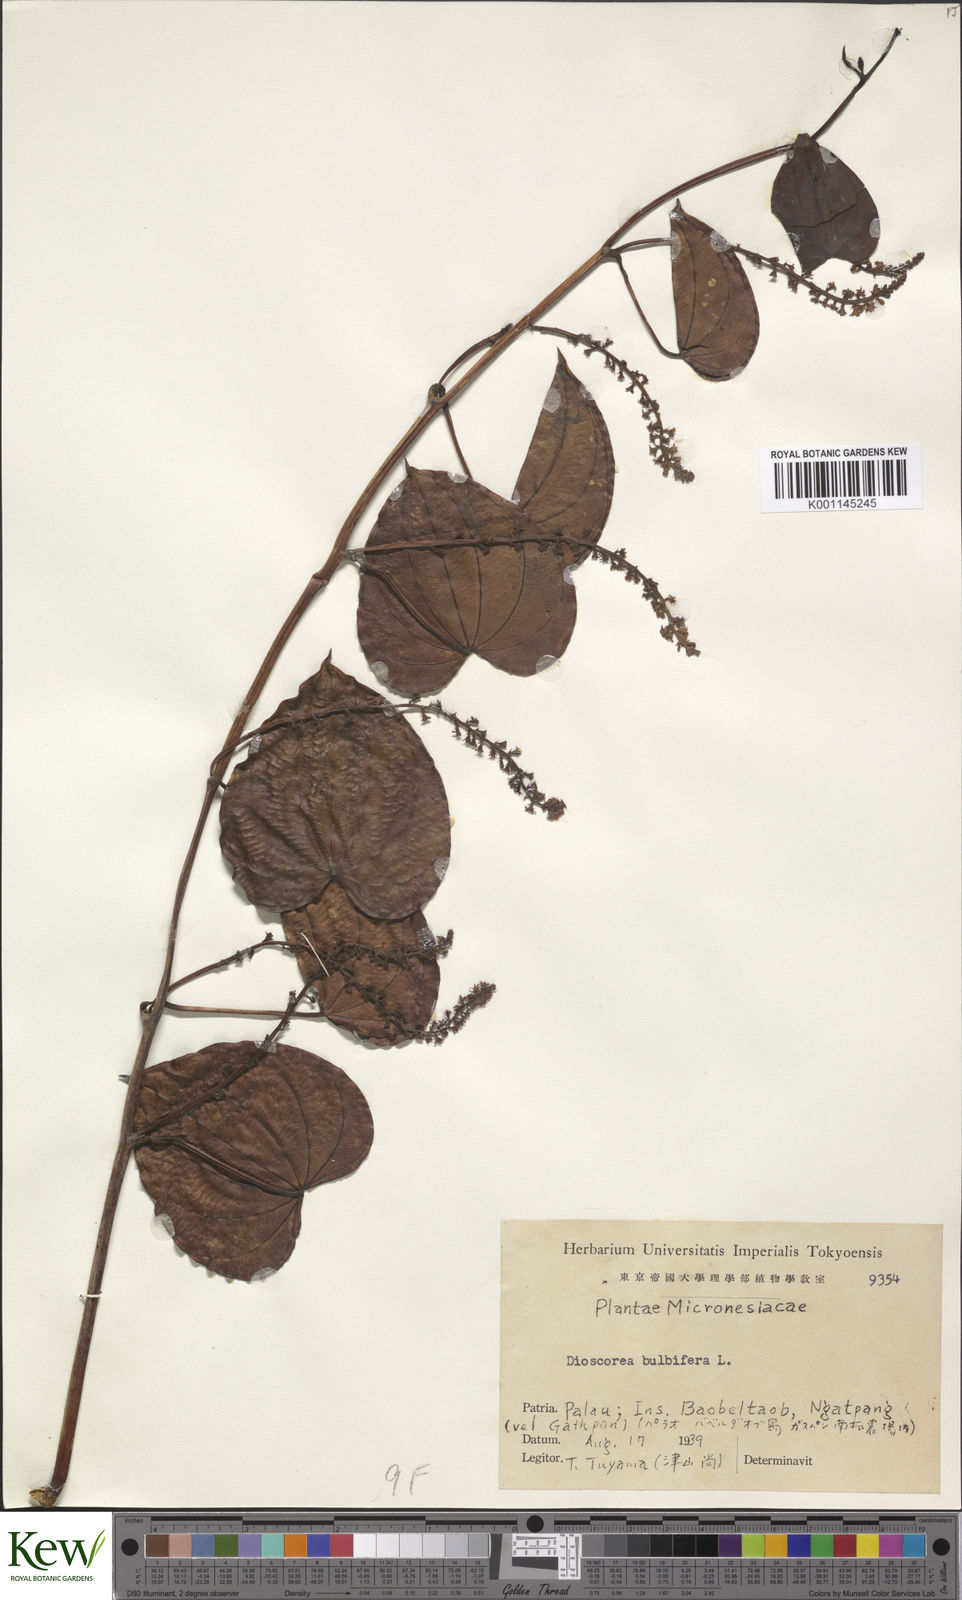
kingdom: Plantae
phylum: Tracheophyta
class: Liliopsida
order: Dioscoreales
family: Dioscoreaceae
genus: Dioscorea
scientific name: Dioscorea bulbifera
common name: Air yam
